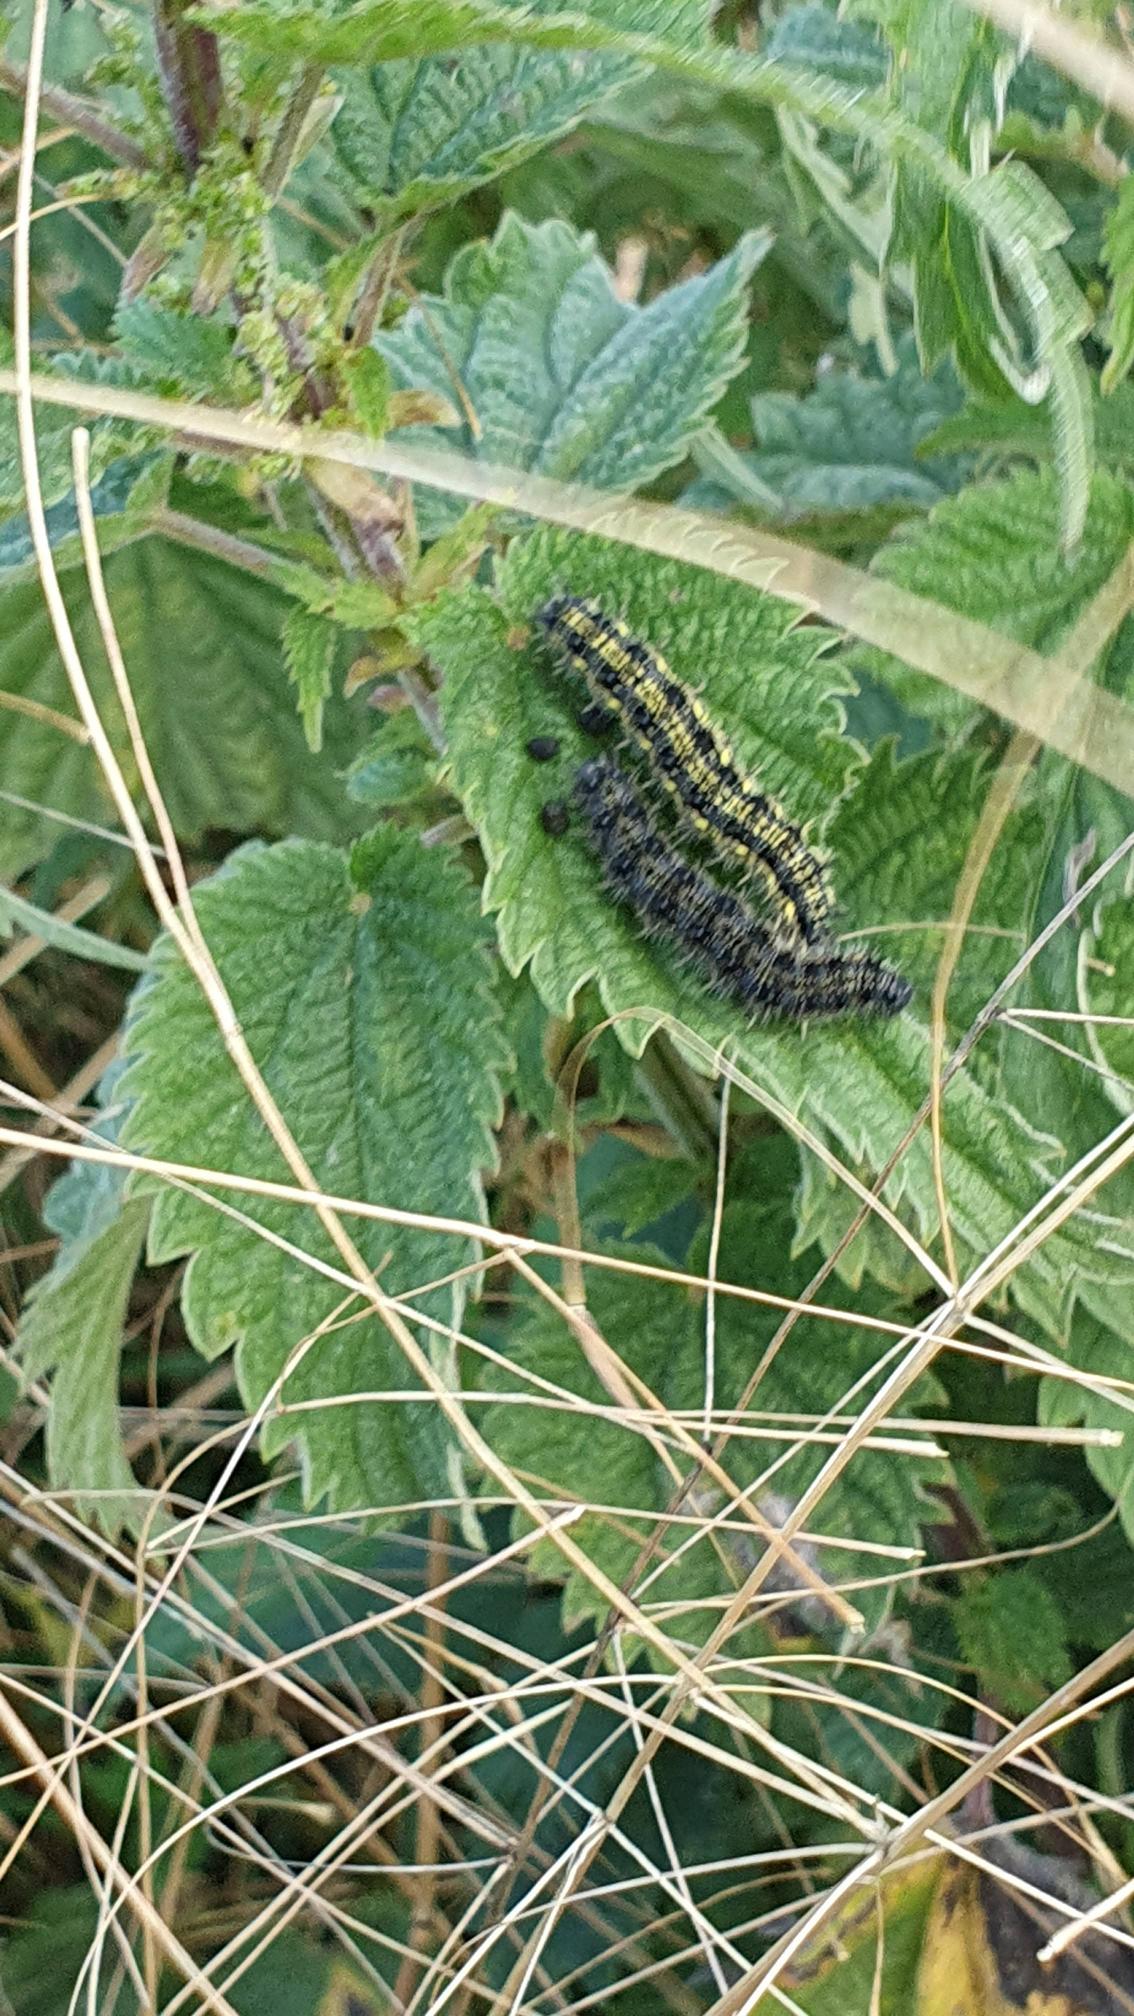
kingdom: Animalia
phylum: Arthropoda
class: Insecta
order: Lepidoptera
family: Nymphalidae
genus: Aglais
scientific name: Aglais urticae
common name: Nældens takvinge
